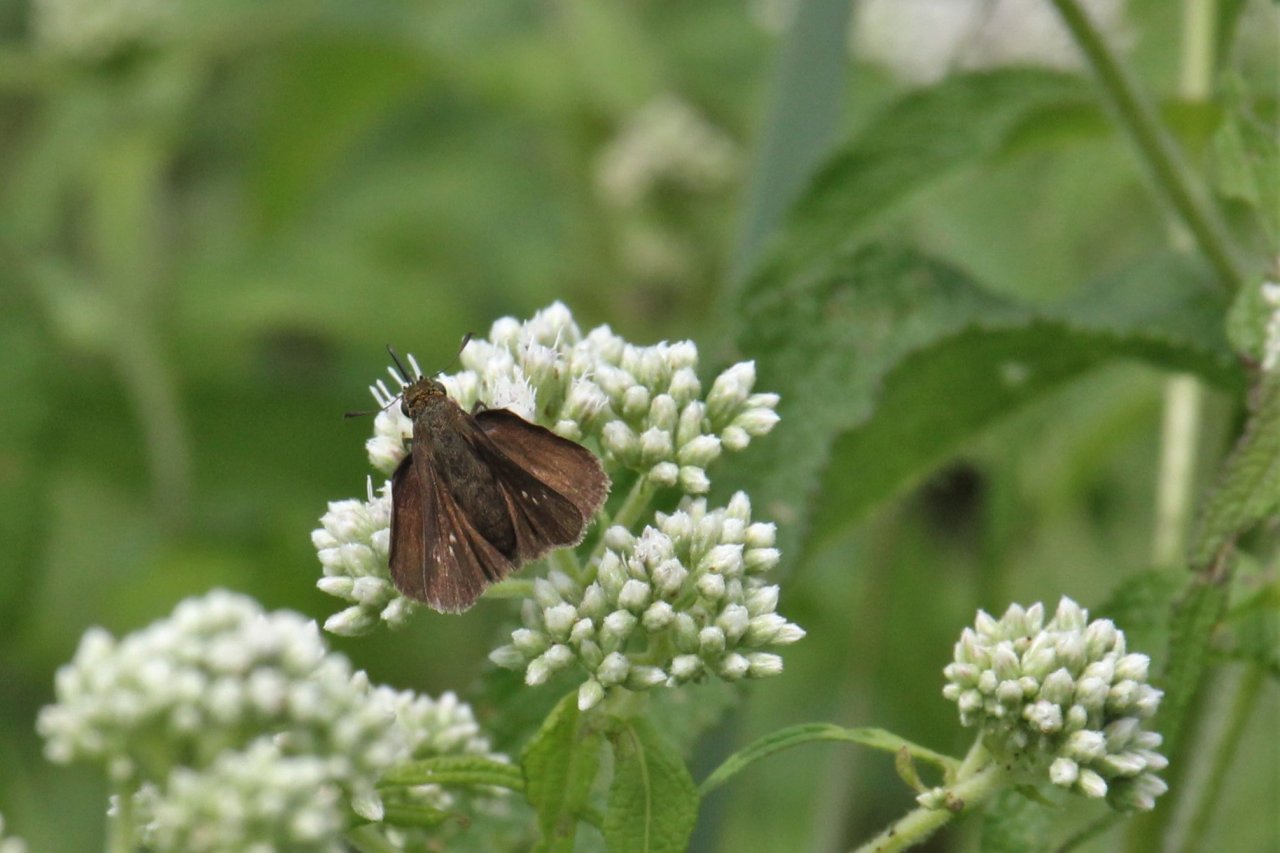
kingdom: Animalia
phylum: Arthropoda
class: Insecta
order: Lepidoptera
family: Hesperiidae
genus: Polites
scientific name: Polites egeremet
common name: Northern Broken-Dash
